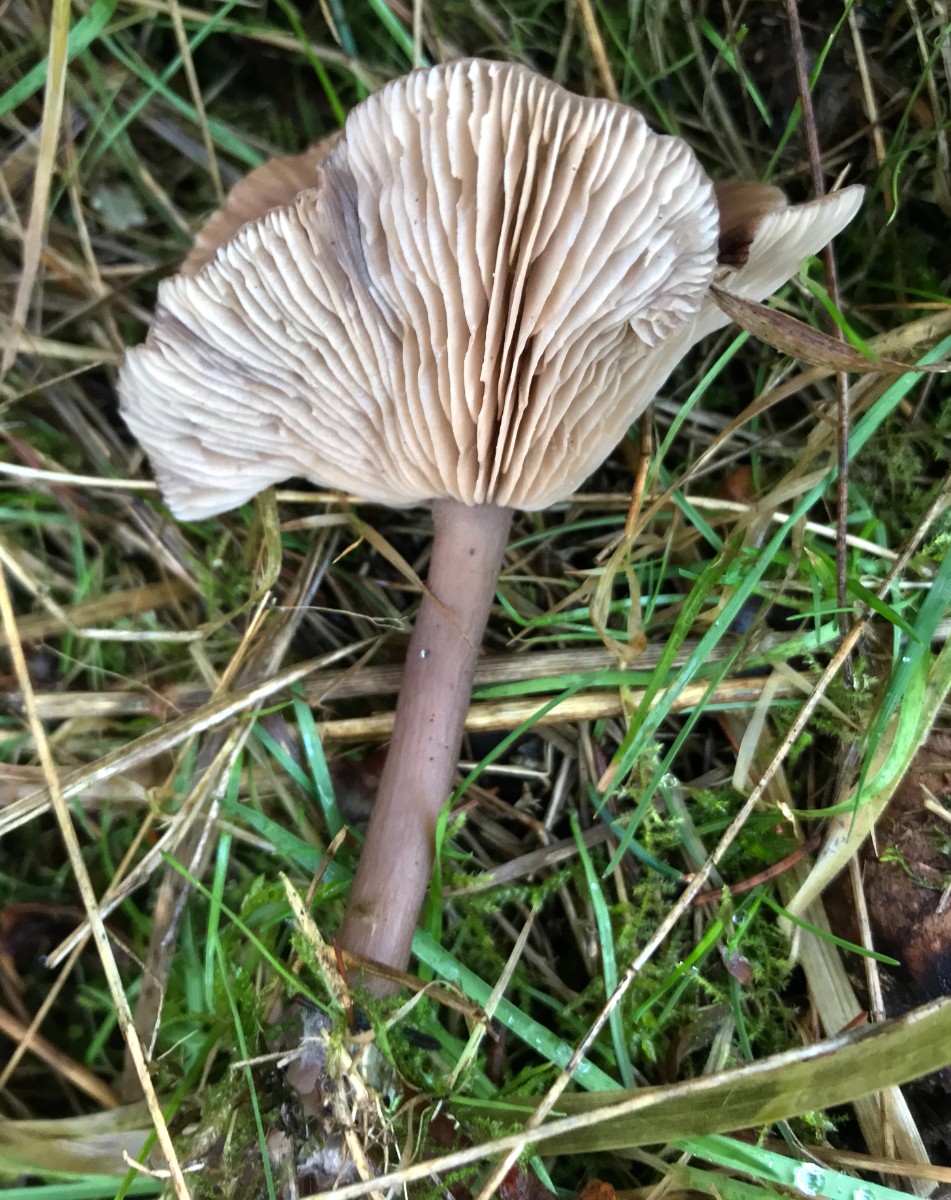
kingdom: Fungi
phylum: Basidiomycota
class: Agaricomycetes
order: Agaricales
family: Pseudoclitocybaceae
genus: Pseudoclitocybe
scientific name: Pseudoclitocybe cyathiformis
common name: almindelig bægertragthat
